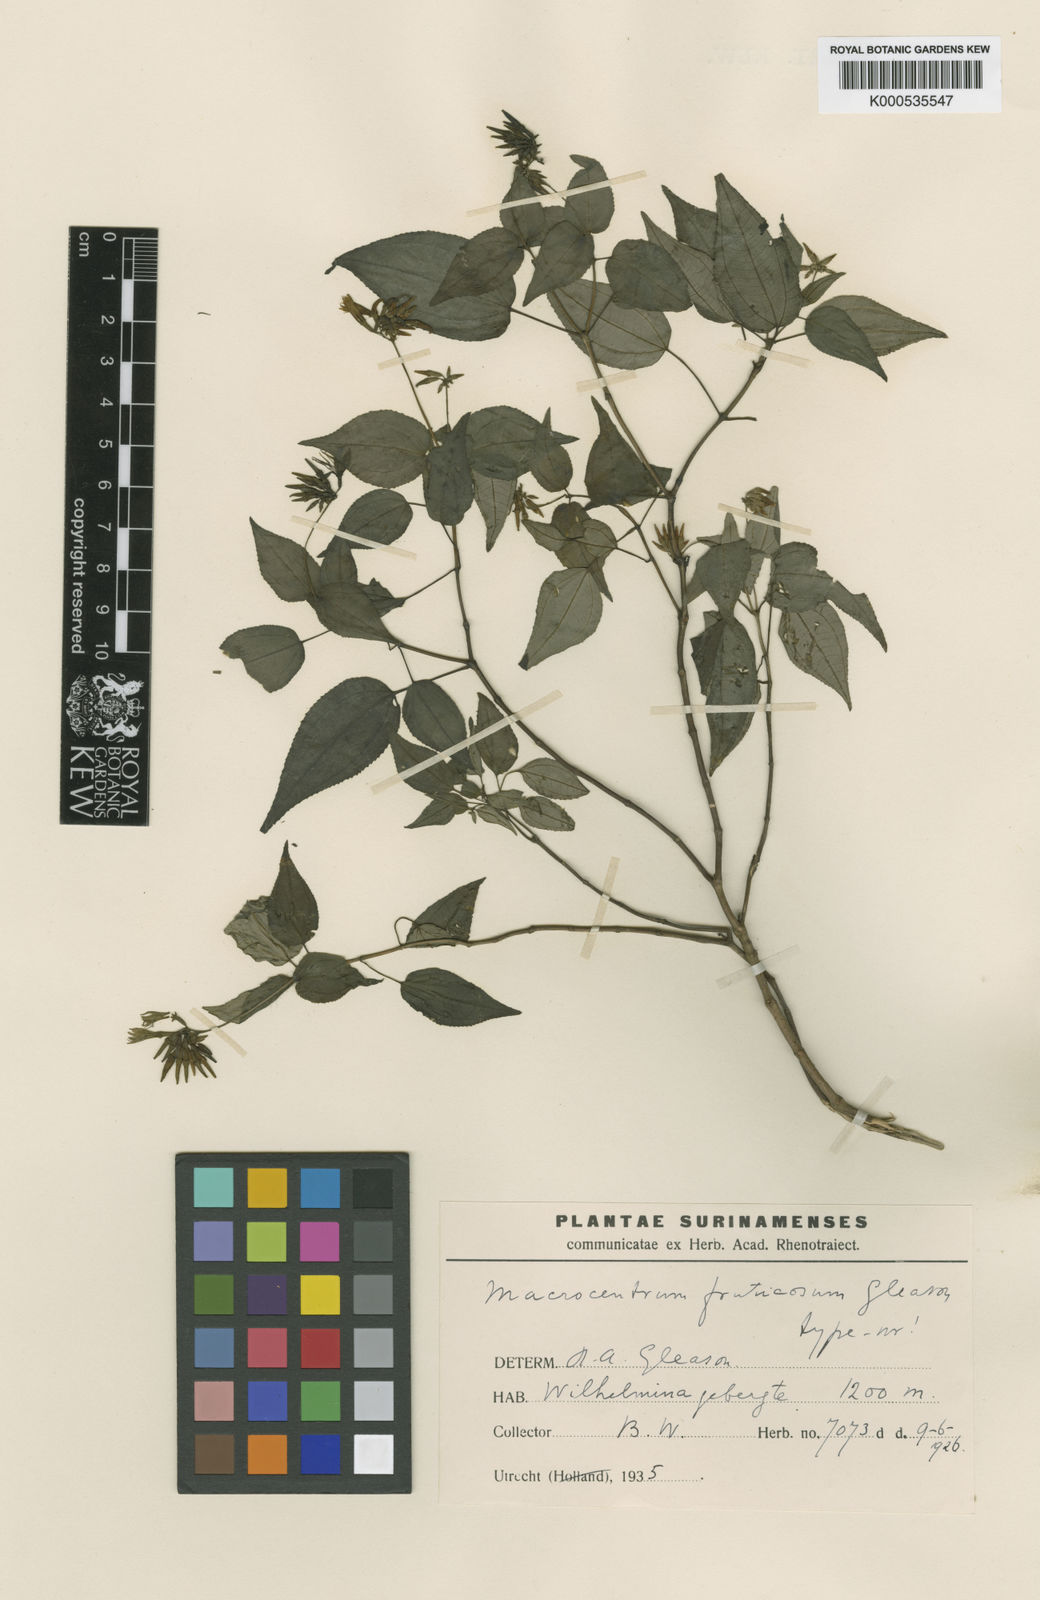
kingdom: Plantae
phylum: Tracheophyta
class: Magnoliopsida
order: Myrtales
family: Melastomataceae
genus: Macrocentrum
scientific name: Macrocentrum fruticosum
